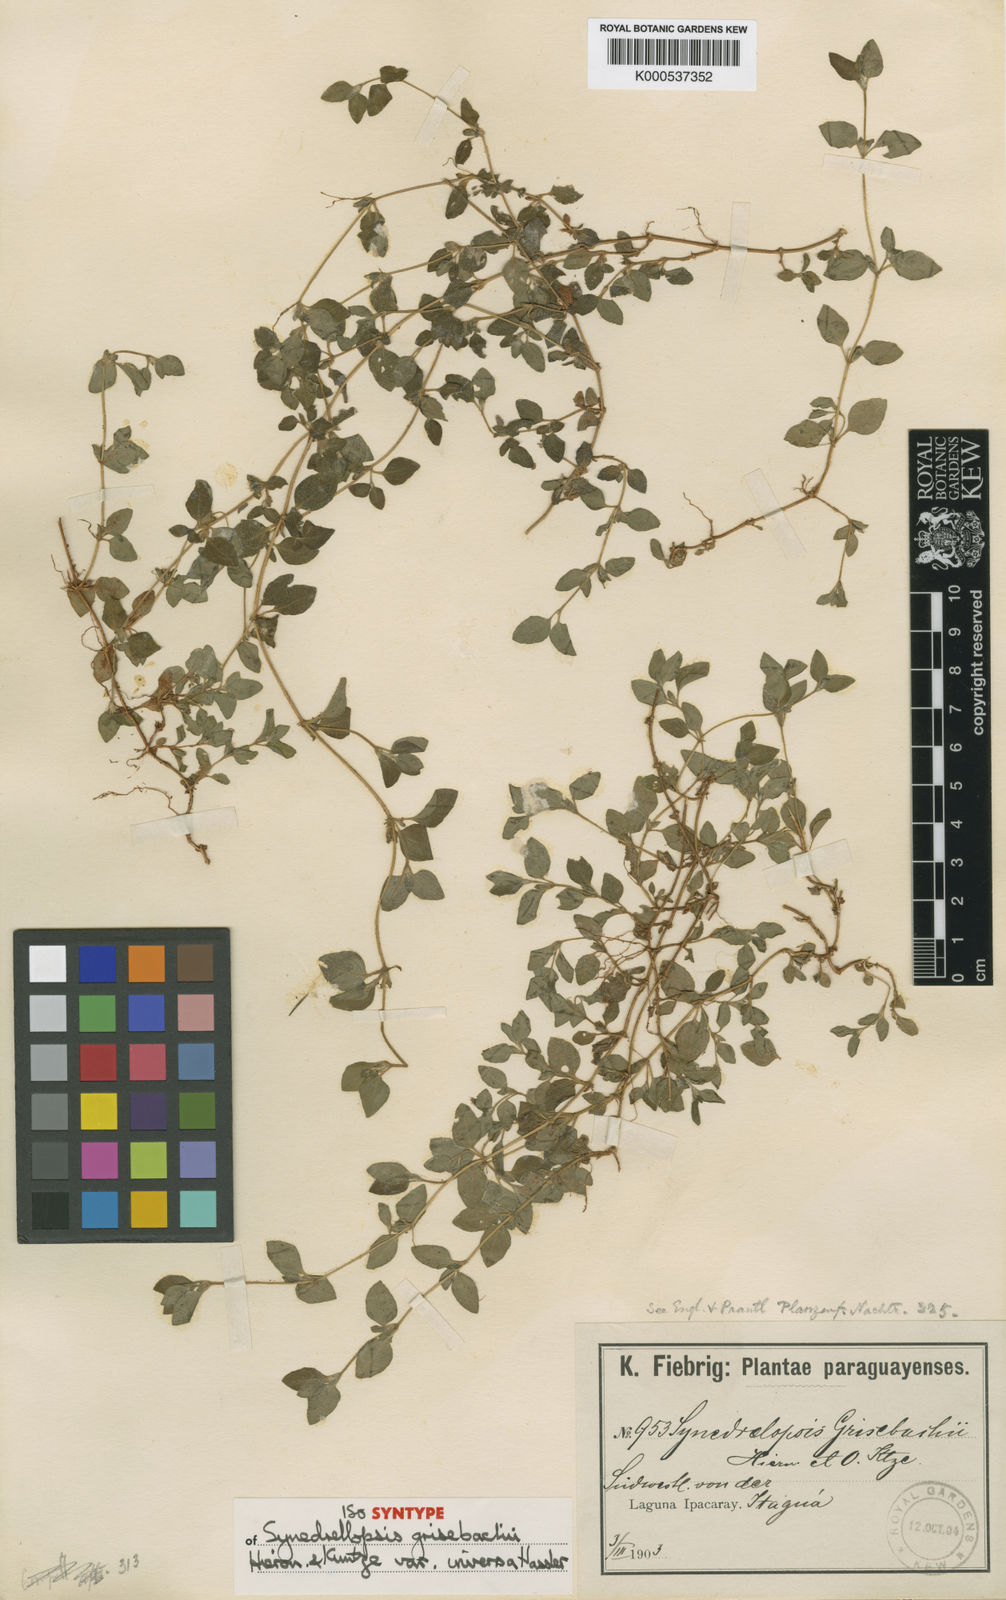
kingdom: Plantae
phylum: Tracheophyta
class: Magnoliopsida
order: Asterales
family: Asteraceae
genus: Synedrellopsis
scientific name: Synedrellopsis grisebachii
